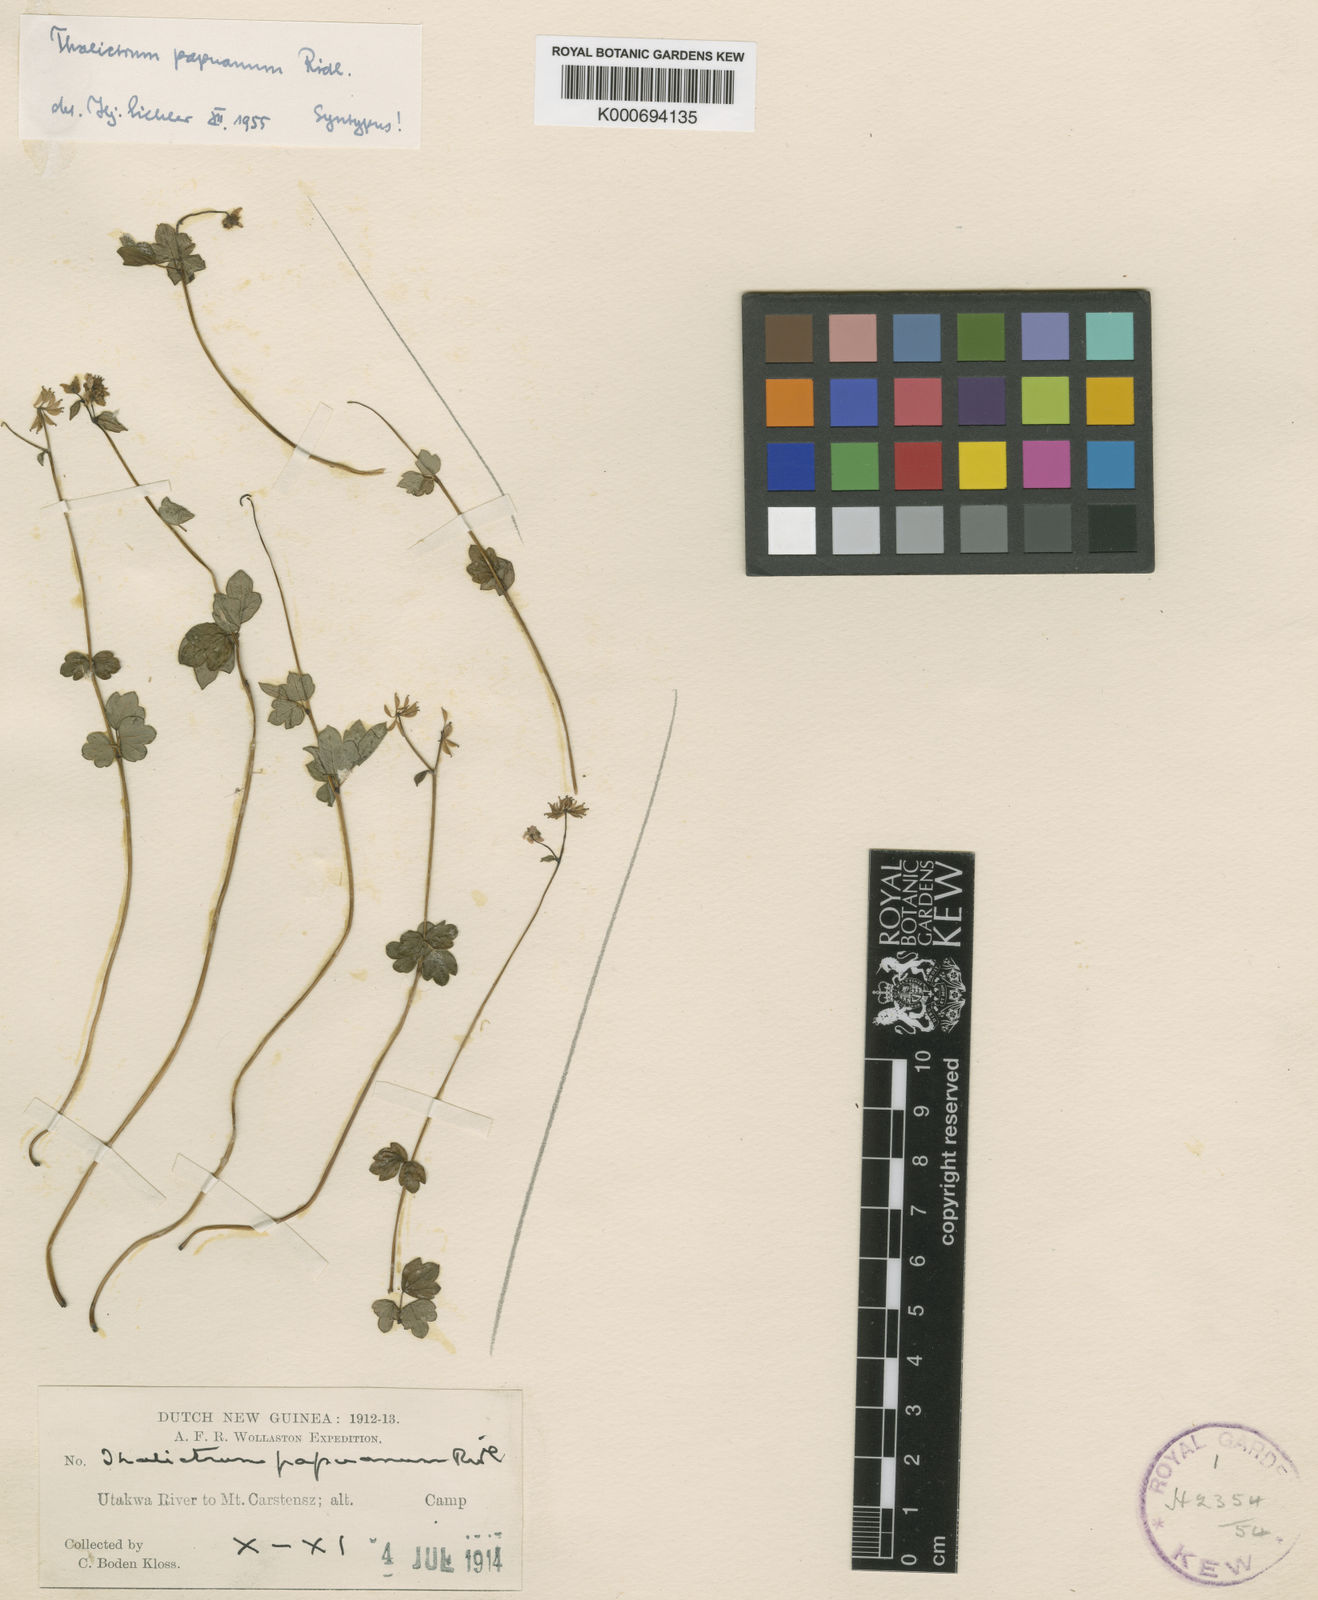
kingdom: Plantae
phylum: Tracheophyta
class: Magnoliopsida
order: Ranunculales
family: Ranunculaceae
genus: Thalictrum
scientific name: Thalictrum papuanum
